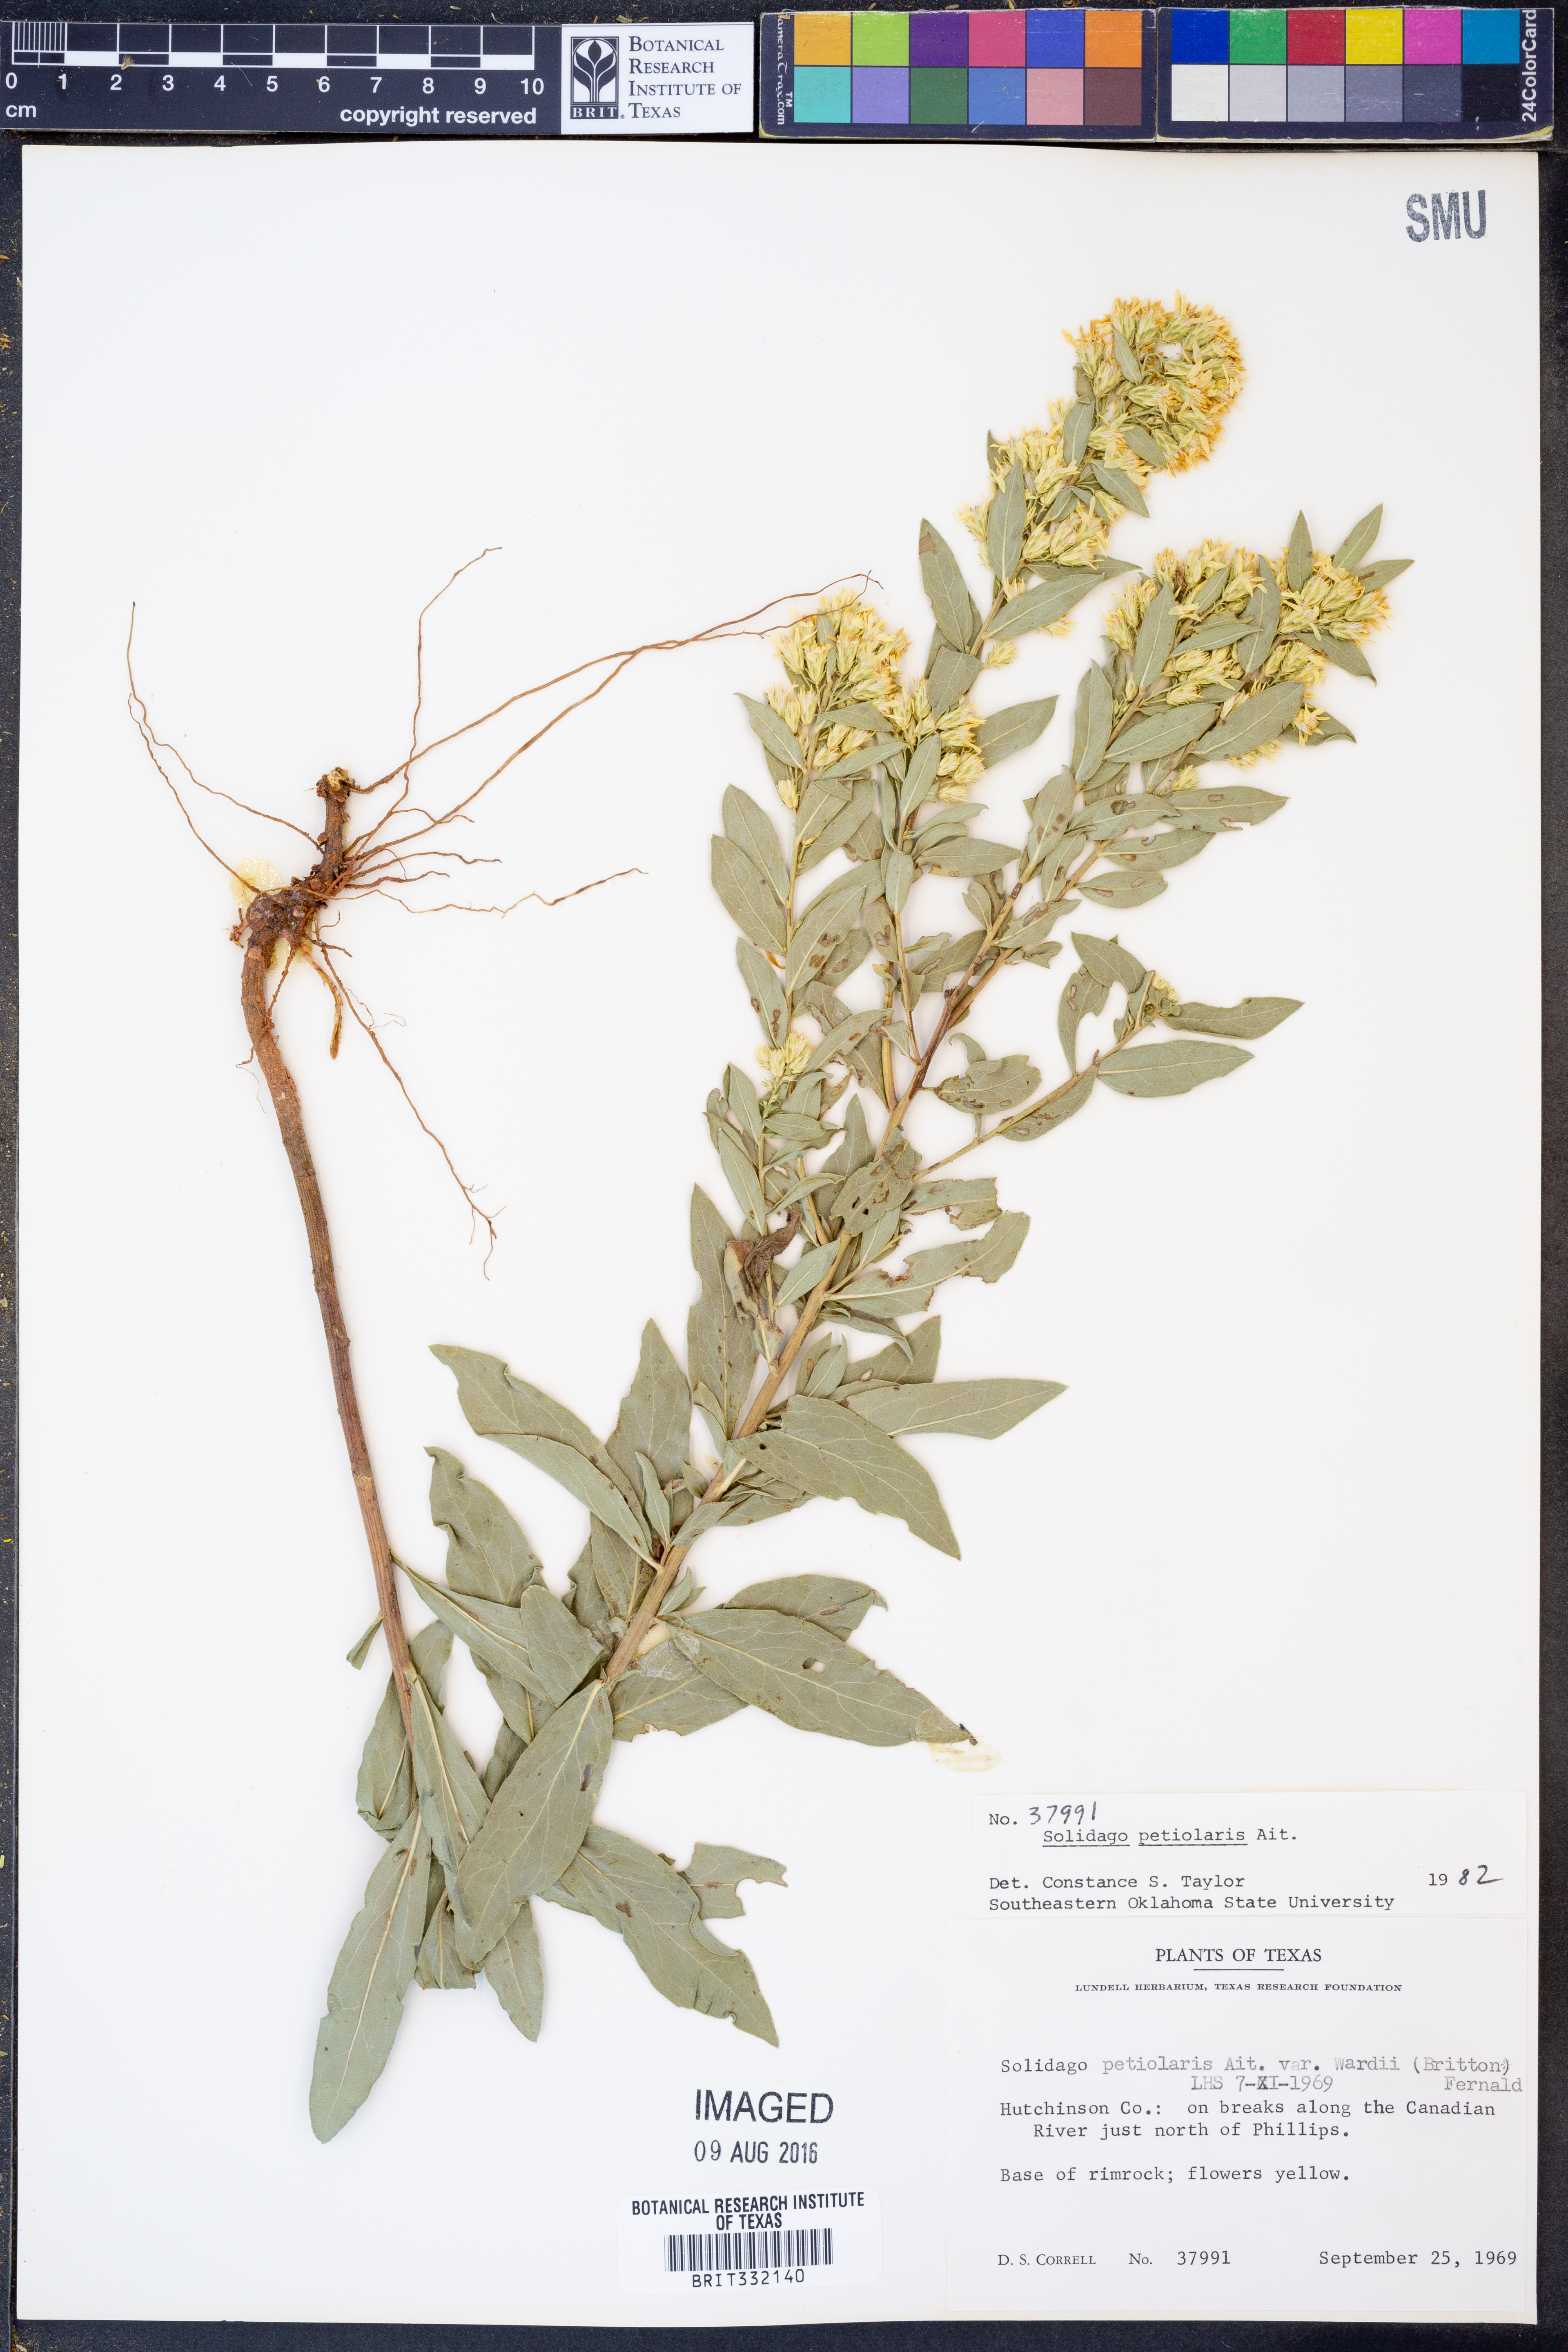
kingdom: Plantae
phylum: Tracheophyta
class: Magnoliopsida
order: Asterales
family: Asteraceae
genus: Solidago
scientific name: Solidago petiolaris
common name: Downy ragged goldenrod
